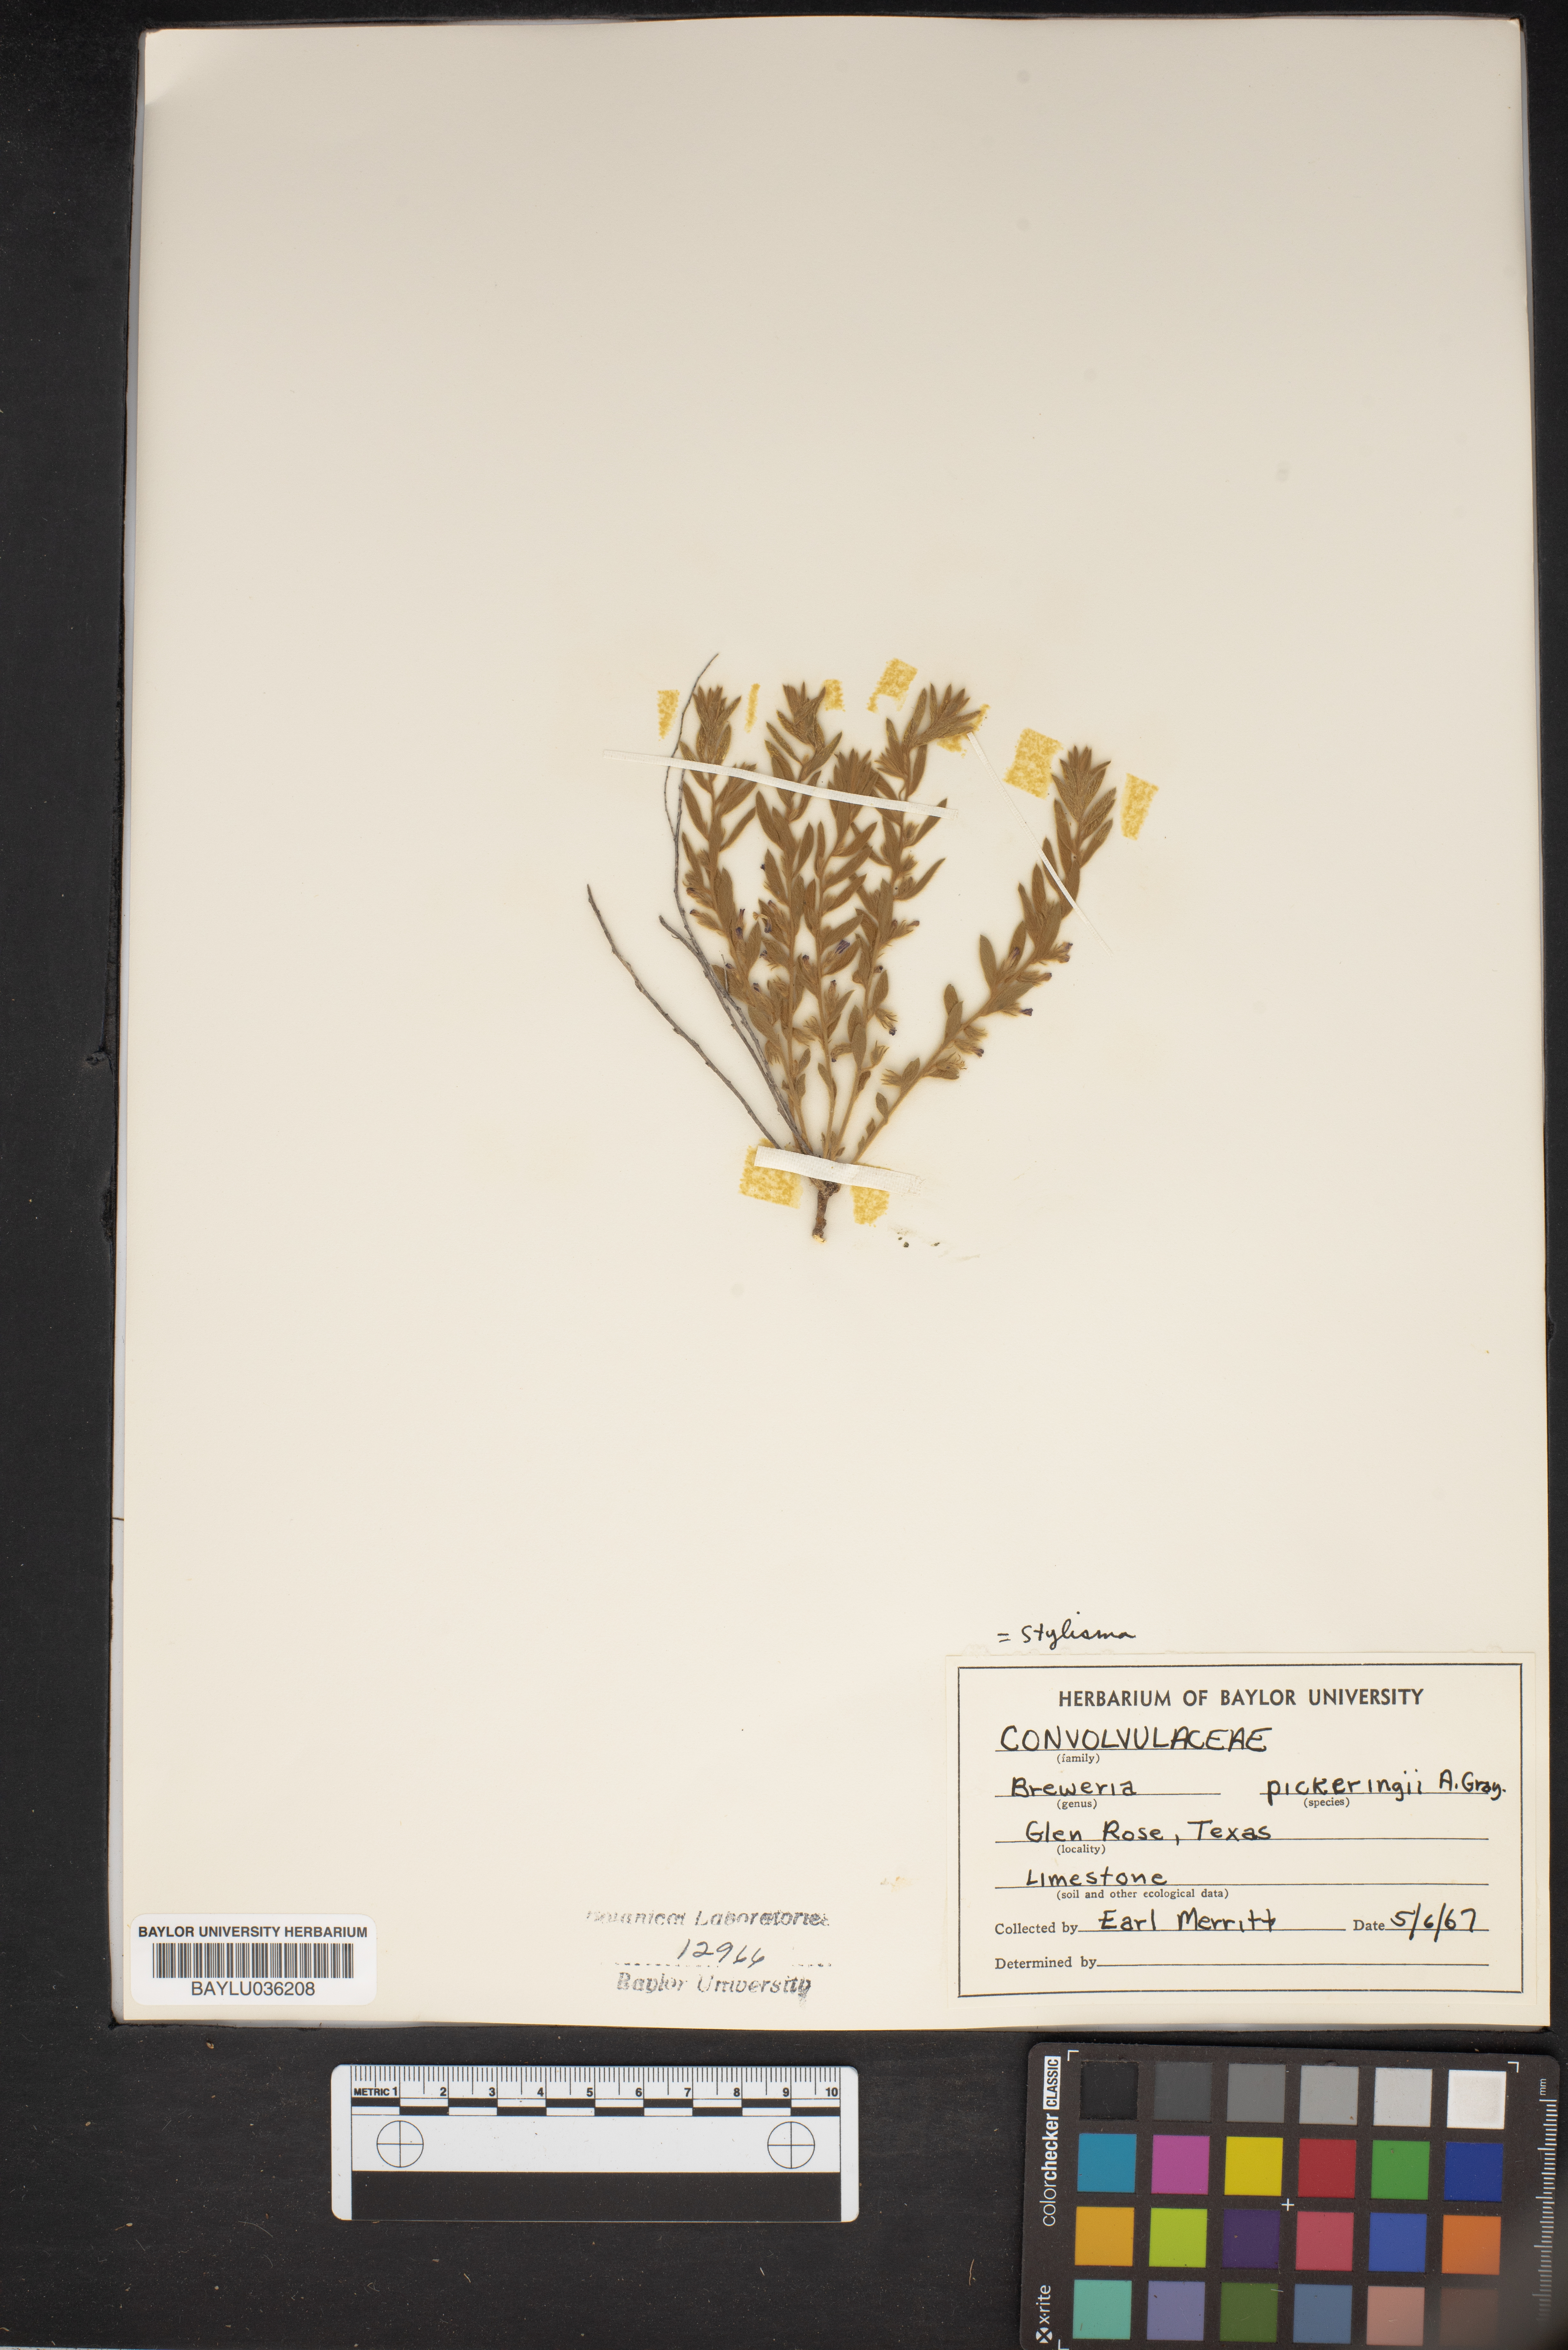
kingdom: Plantae
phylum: Tracheophyta
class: Magnoliopsida
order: Solanales
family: Convolvulaceae
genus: Stylisma
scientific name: Stylisma pickeringii
